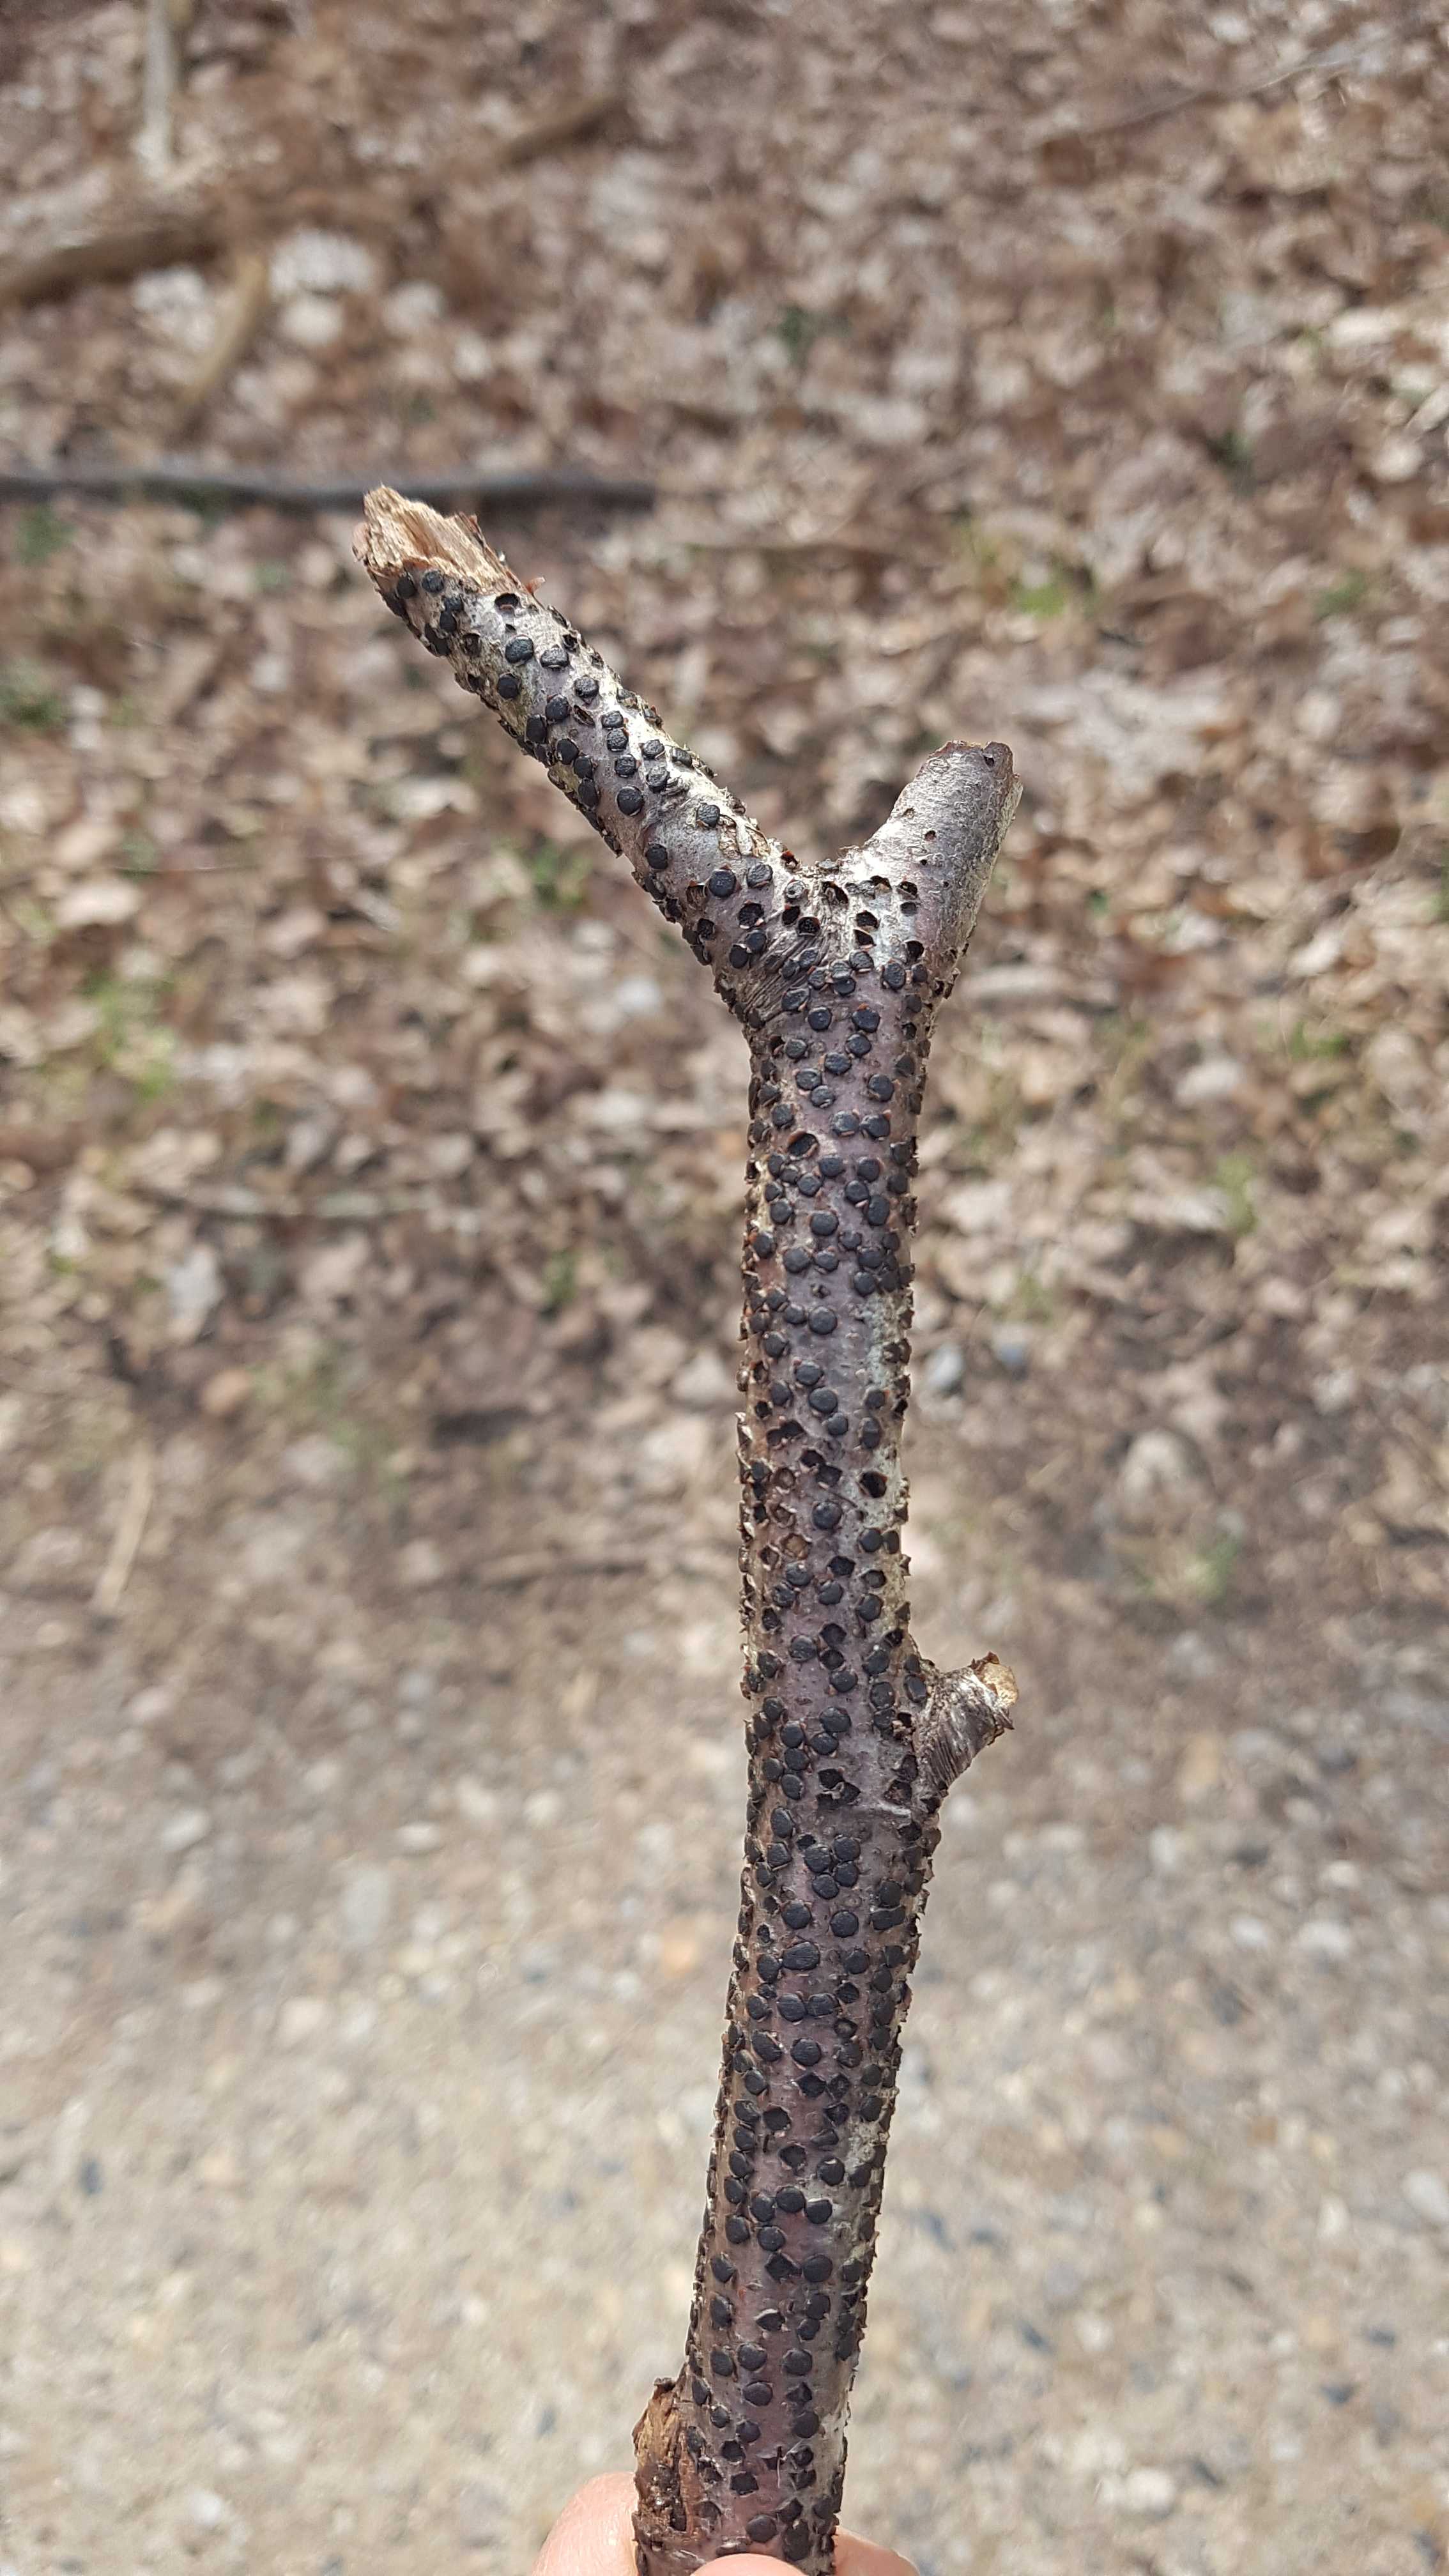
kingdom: Fungi
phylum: Ascomycota
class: Sordariomycetes
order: Xylariales
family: Diatrypaceae
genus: Diatrype
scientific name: Diatrype disciformis
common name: kant-kulskorpe
